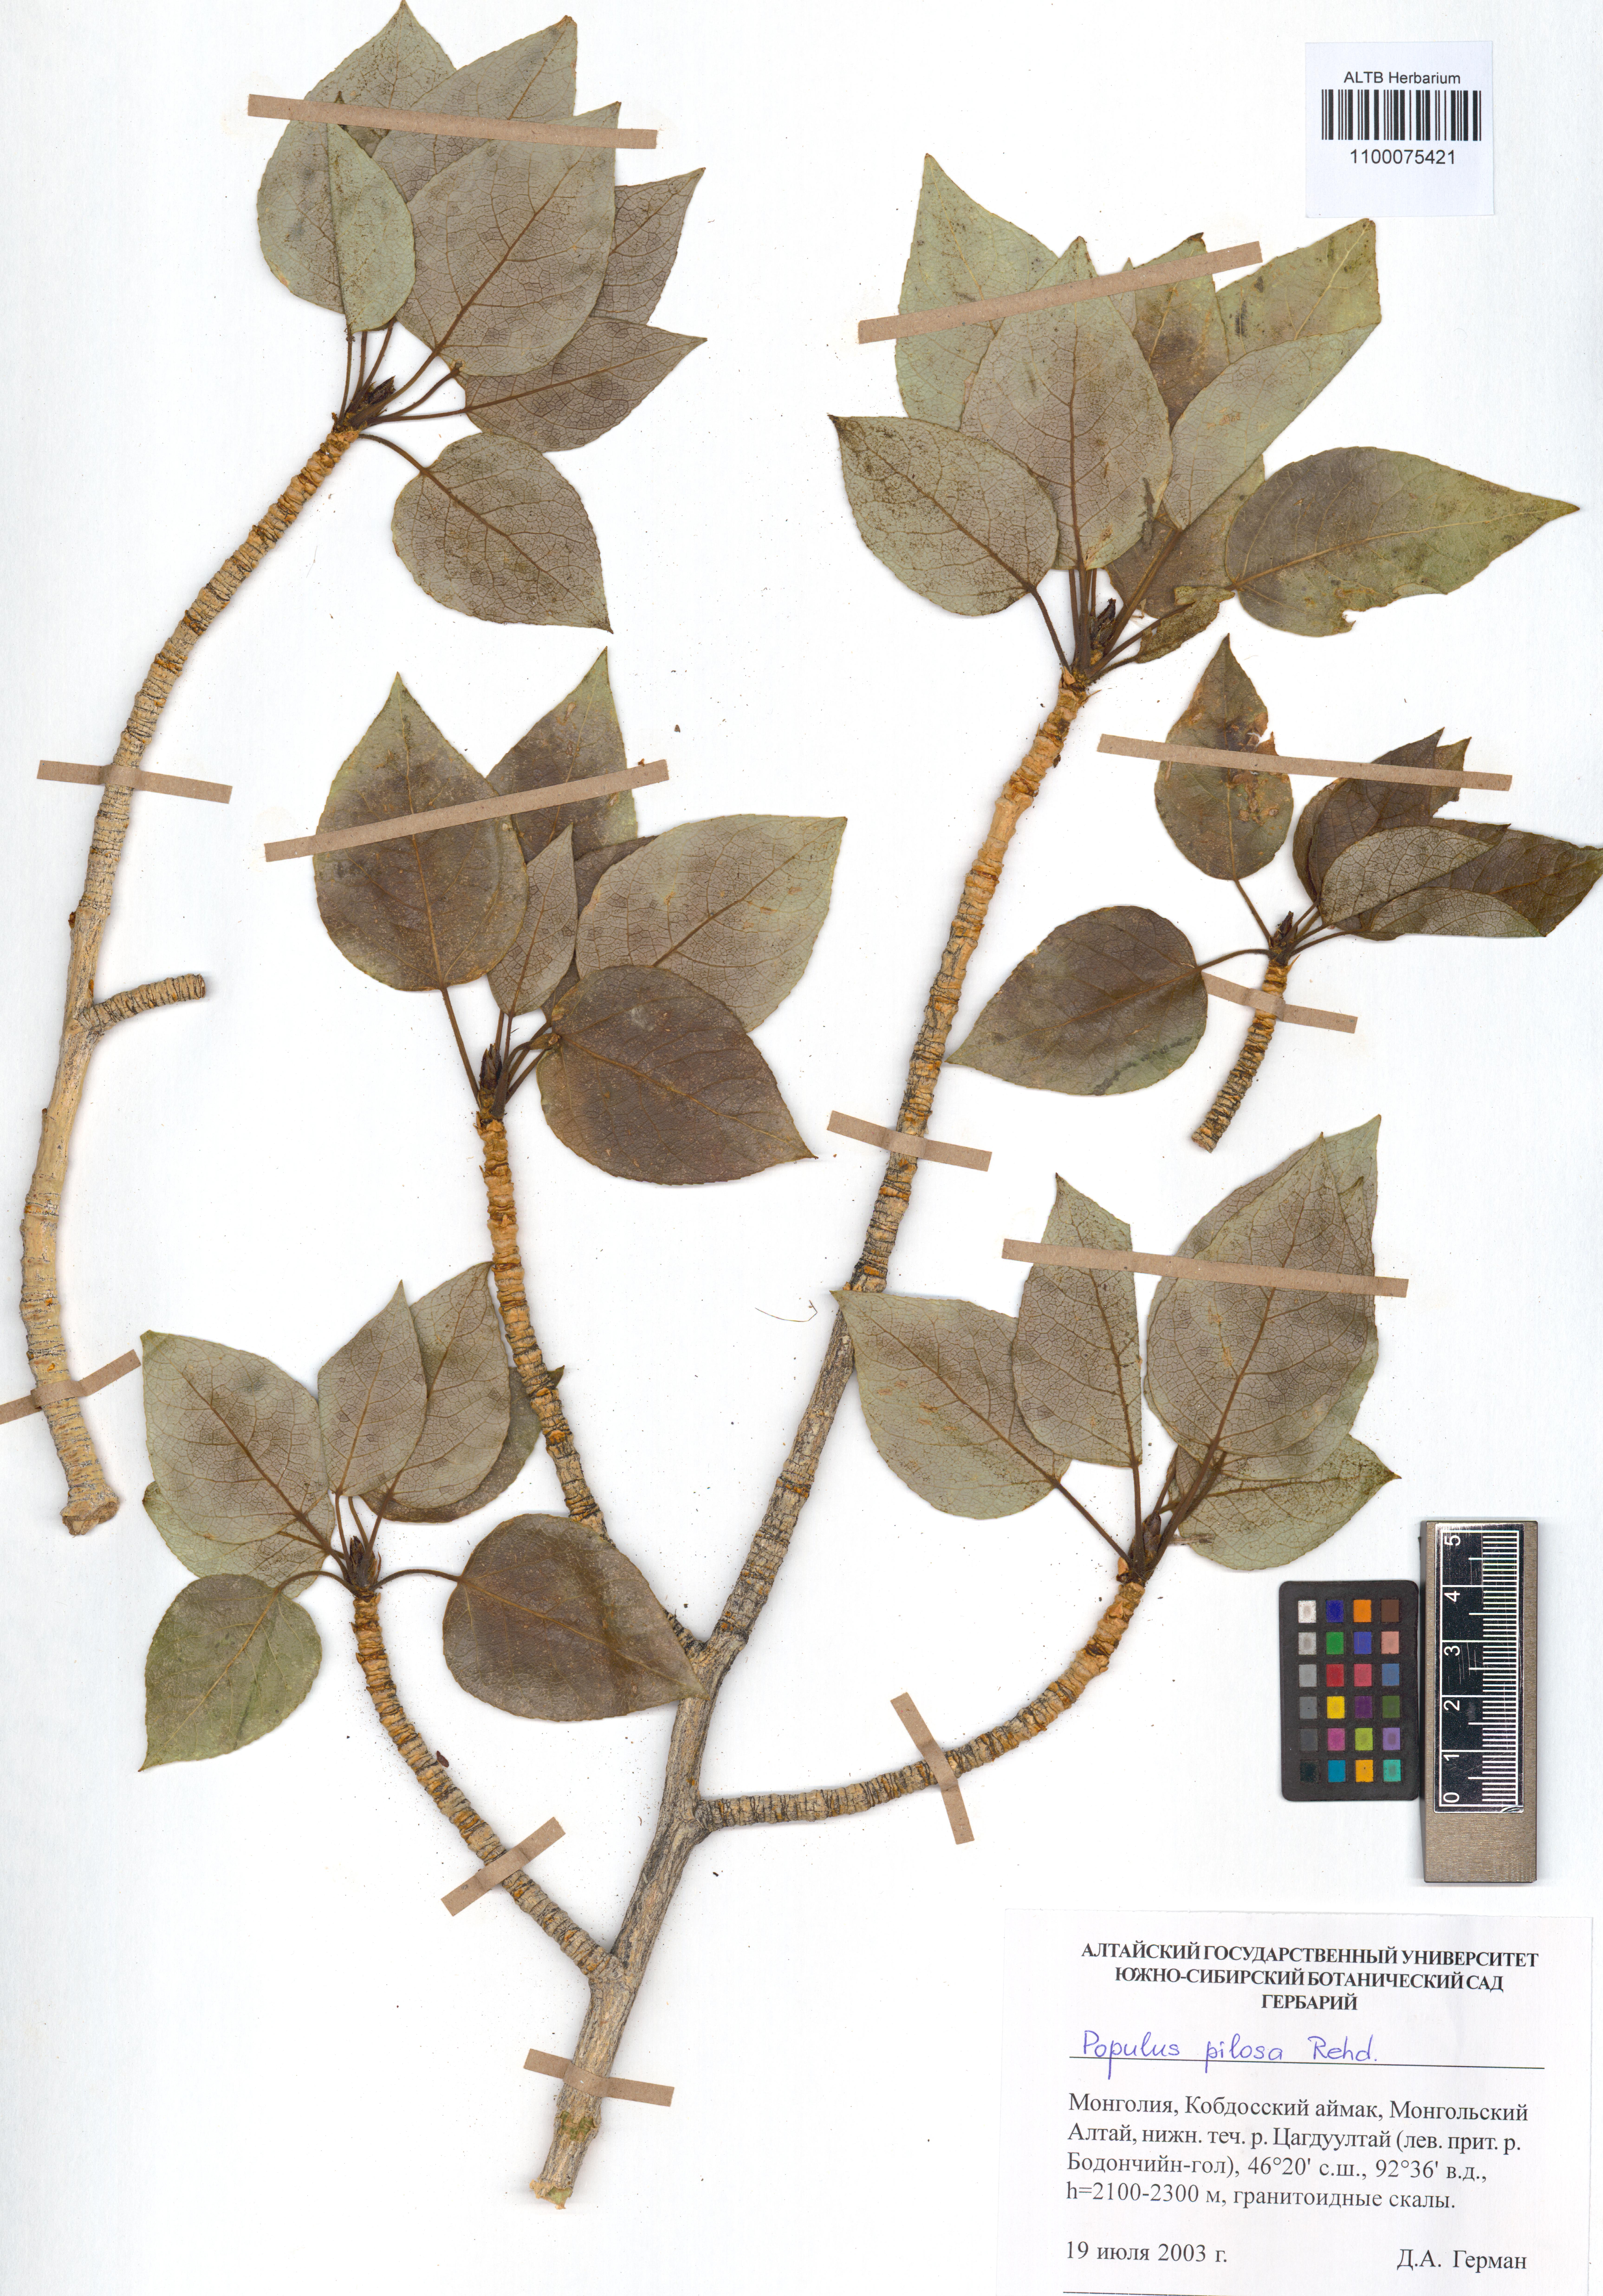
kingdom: Plantae
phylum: Tracheophyta
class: Magnoliopsida
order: Malpighiales
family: Salicaceae
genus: Populus
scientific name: Populus laurifolia
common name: Laurel-leaf poplar
